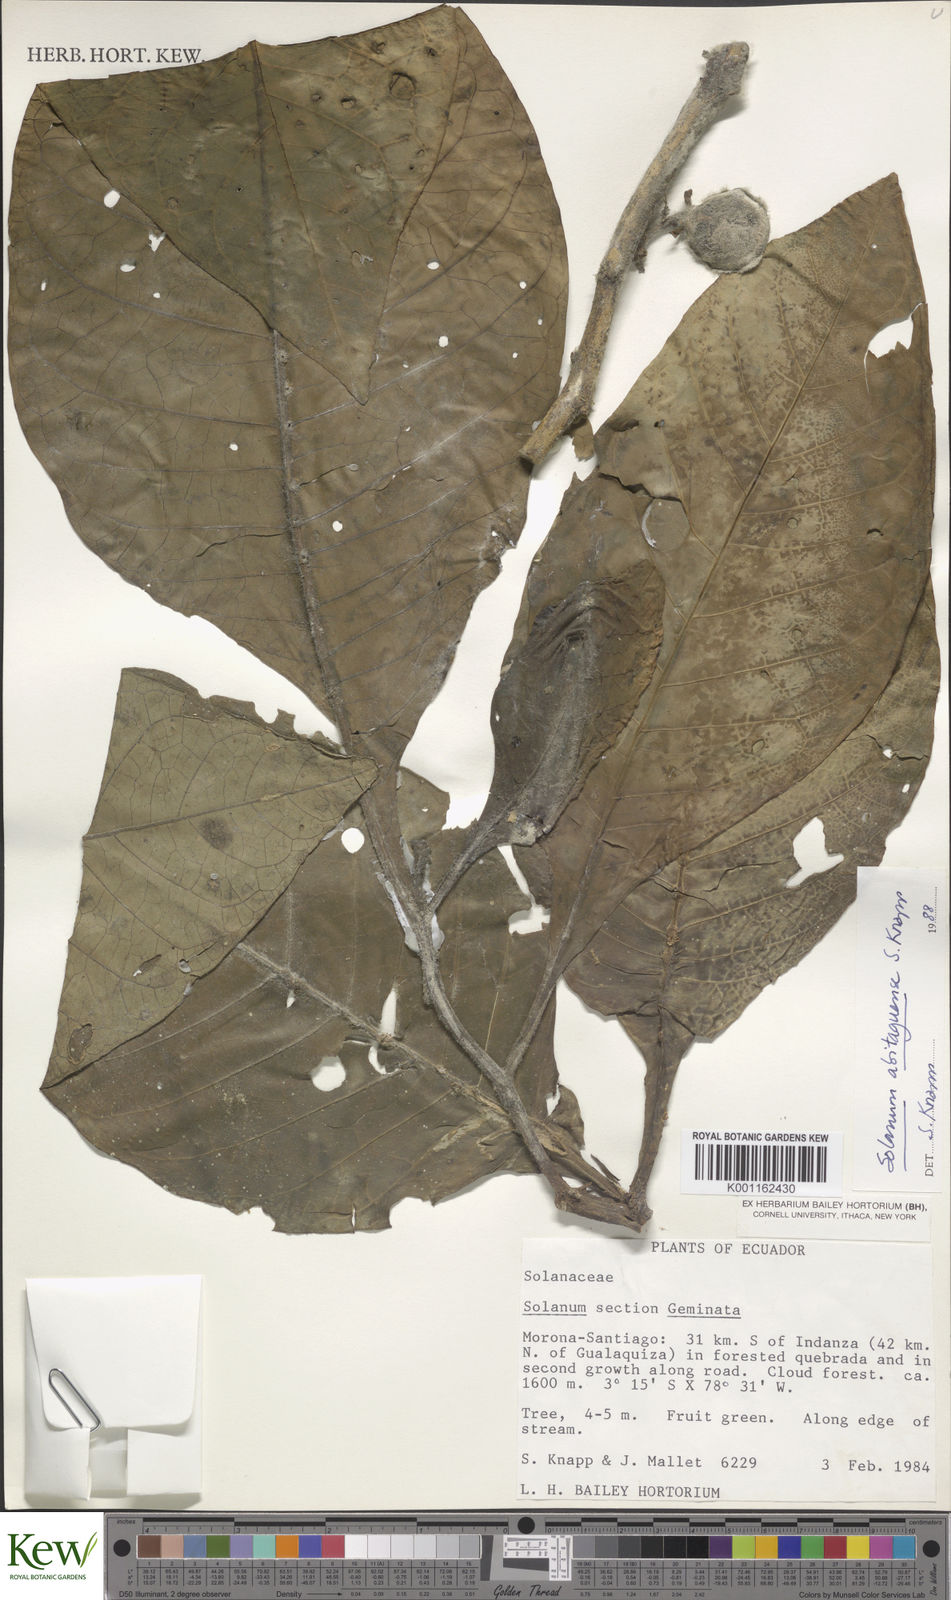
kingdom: Plantae
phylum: Tracheophyta
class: Magnoliopsida
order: Solanales
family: Solanaceae
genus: Solanum
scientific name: Solanum abitaguense
